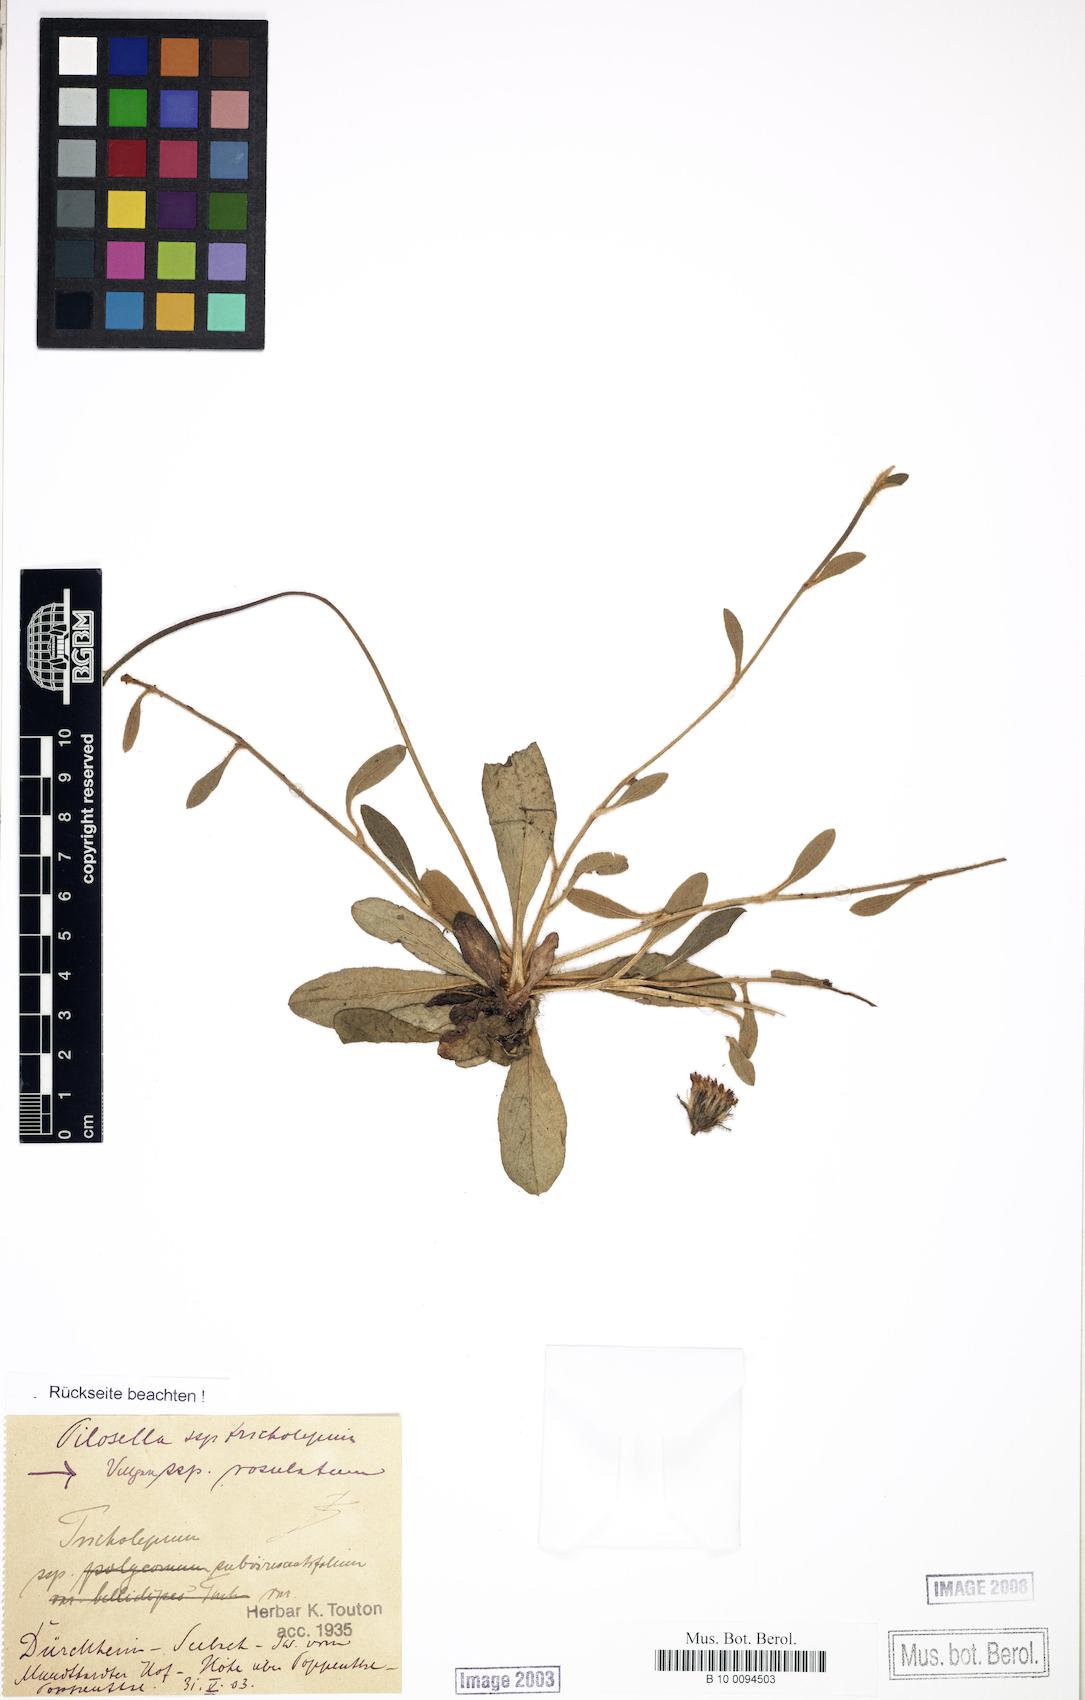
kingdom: Plantae
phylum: Tracheophyta
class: Magnoliopsida
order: Asterales
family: Asteraceae
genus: Pilosella
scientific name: Pilosella officinarum
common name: Mouse-ear hawkweed
